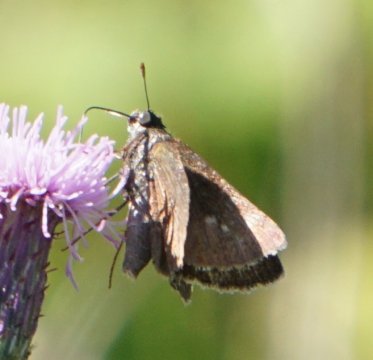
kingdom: Animalia
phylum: Arthropoda
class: Insecta
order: Lepidoptera
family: Hesperiidae
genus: Euphyes
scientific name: Euphyes vestris
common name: Dun Skipper
